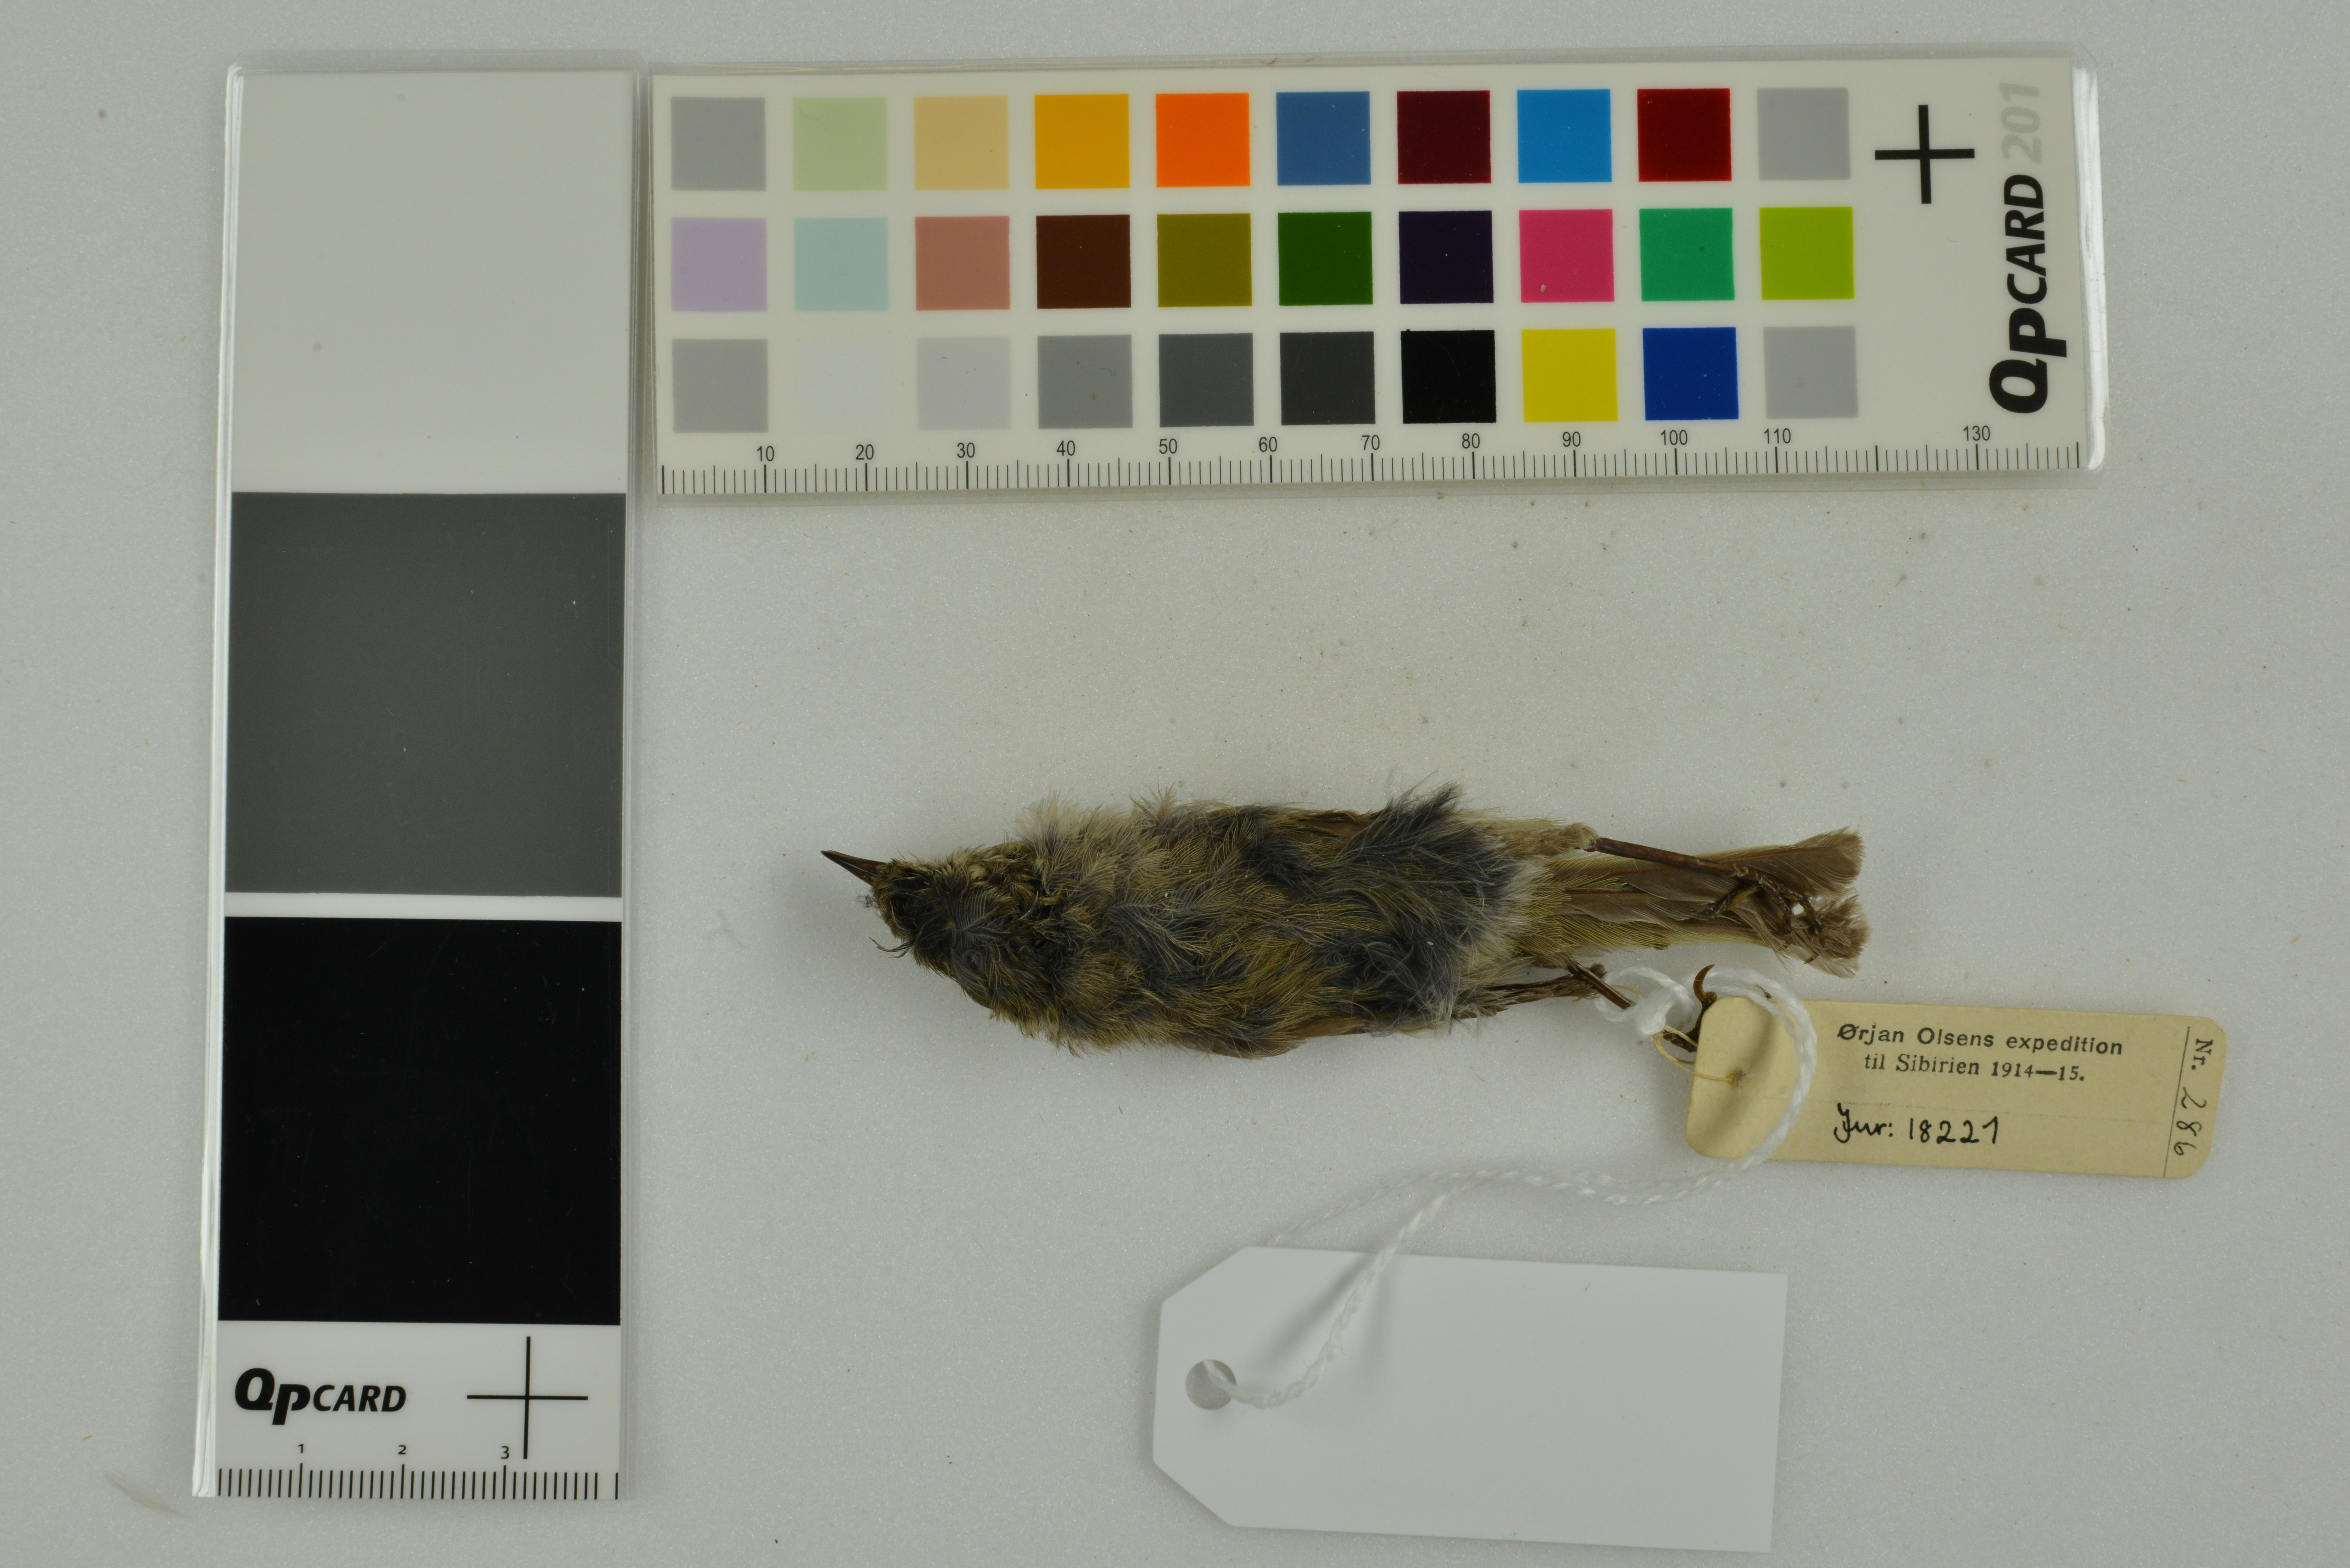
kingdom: Animalia
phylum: Chordata
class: Aves
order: Passeriformes
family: Phylloscopidae
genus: Phylloscopus
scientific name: Phylloscopus proregulus
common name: Pallas's leaf warbler
